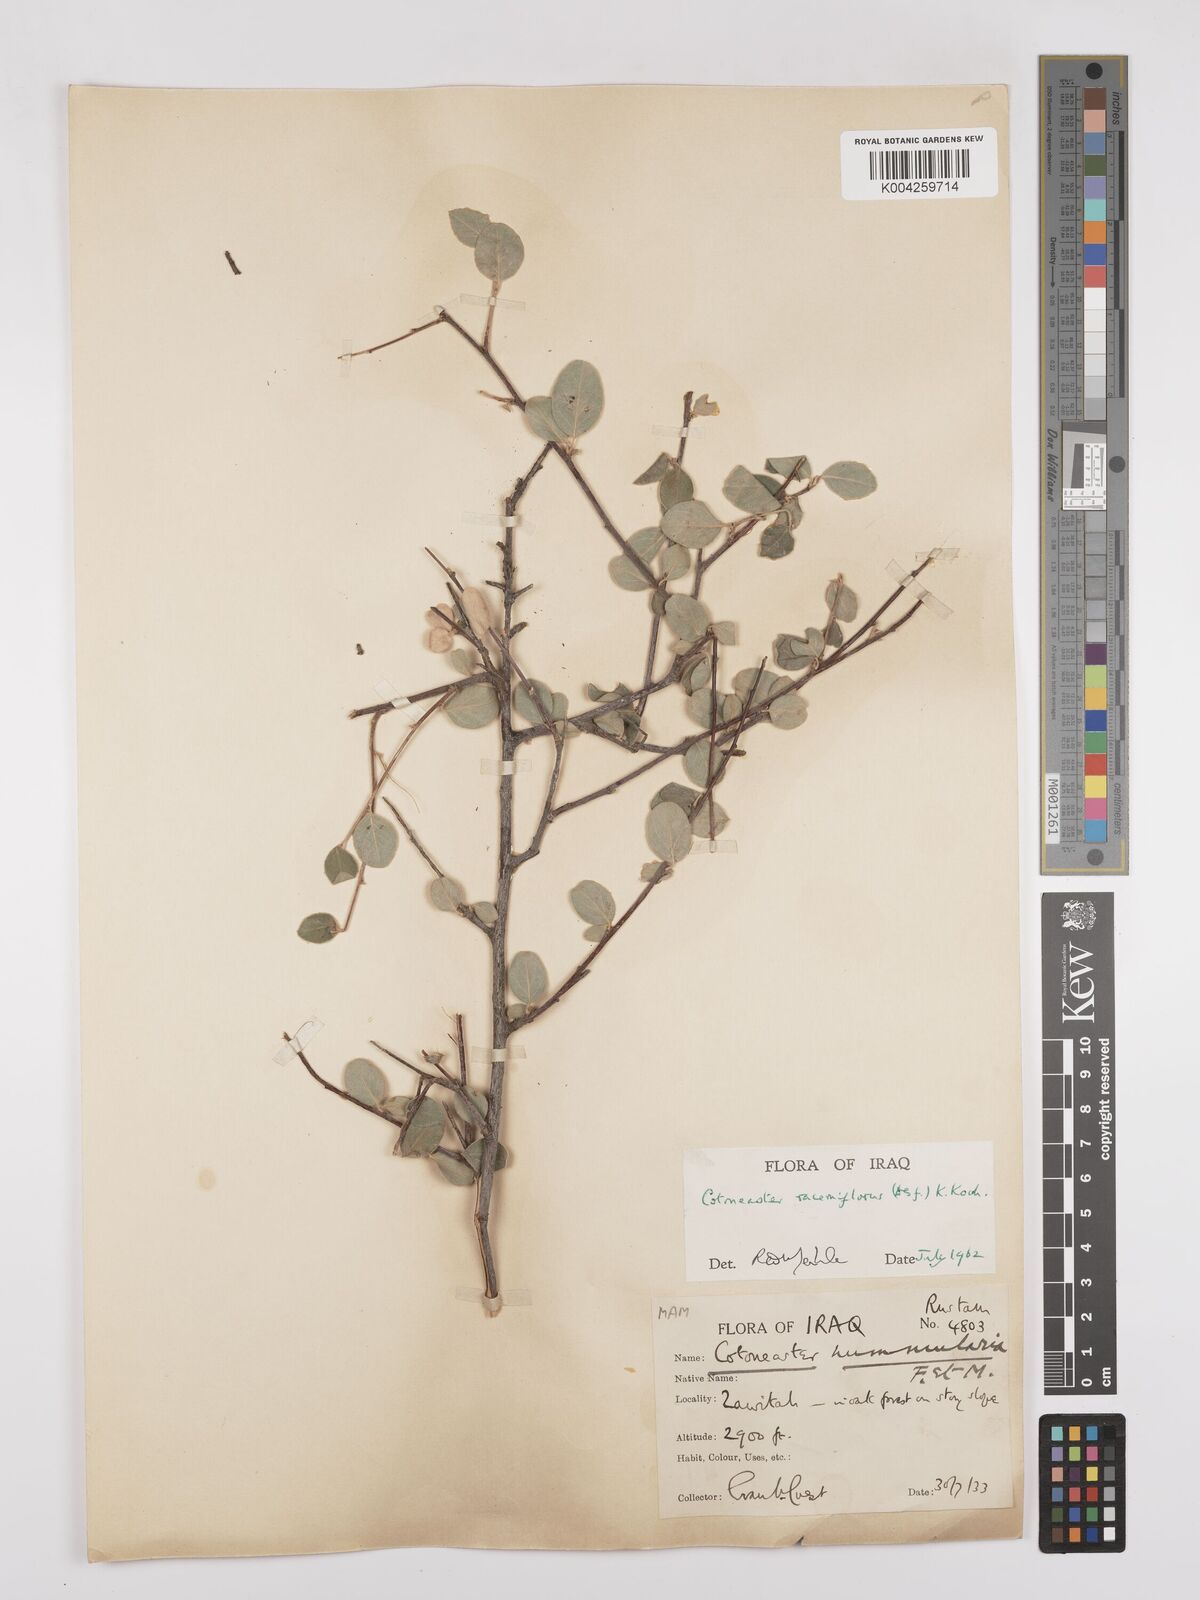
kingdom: Plantae
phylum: Tracheophyta
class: Magnoliopsida
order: Rosales
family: Rosaceae
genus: Cotoneaster
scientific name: Cotoneaster racemiflorus
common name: Cluster-flower cotoneaster
